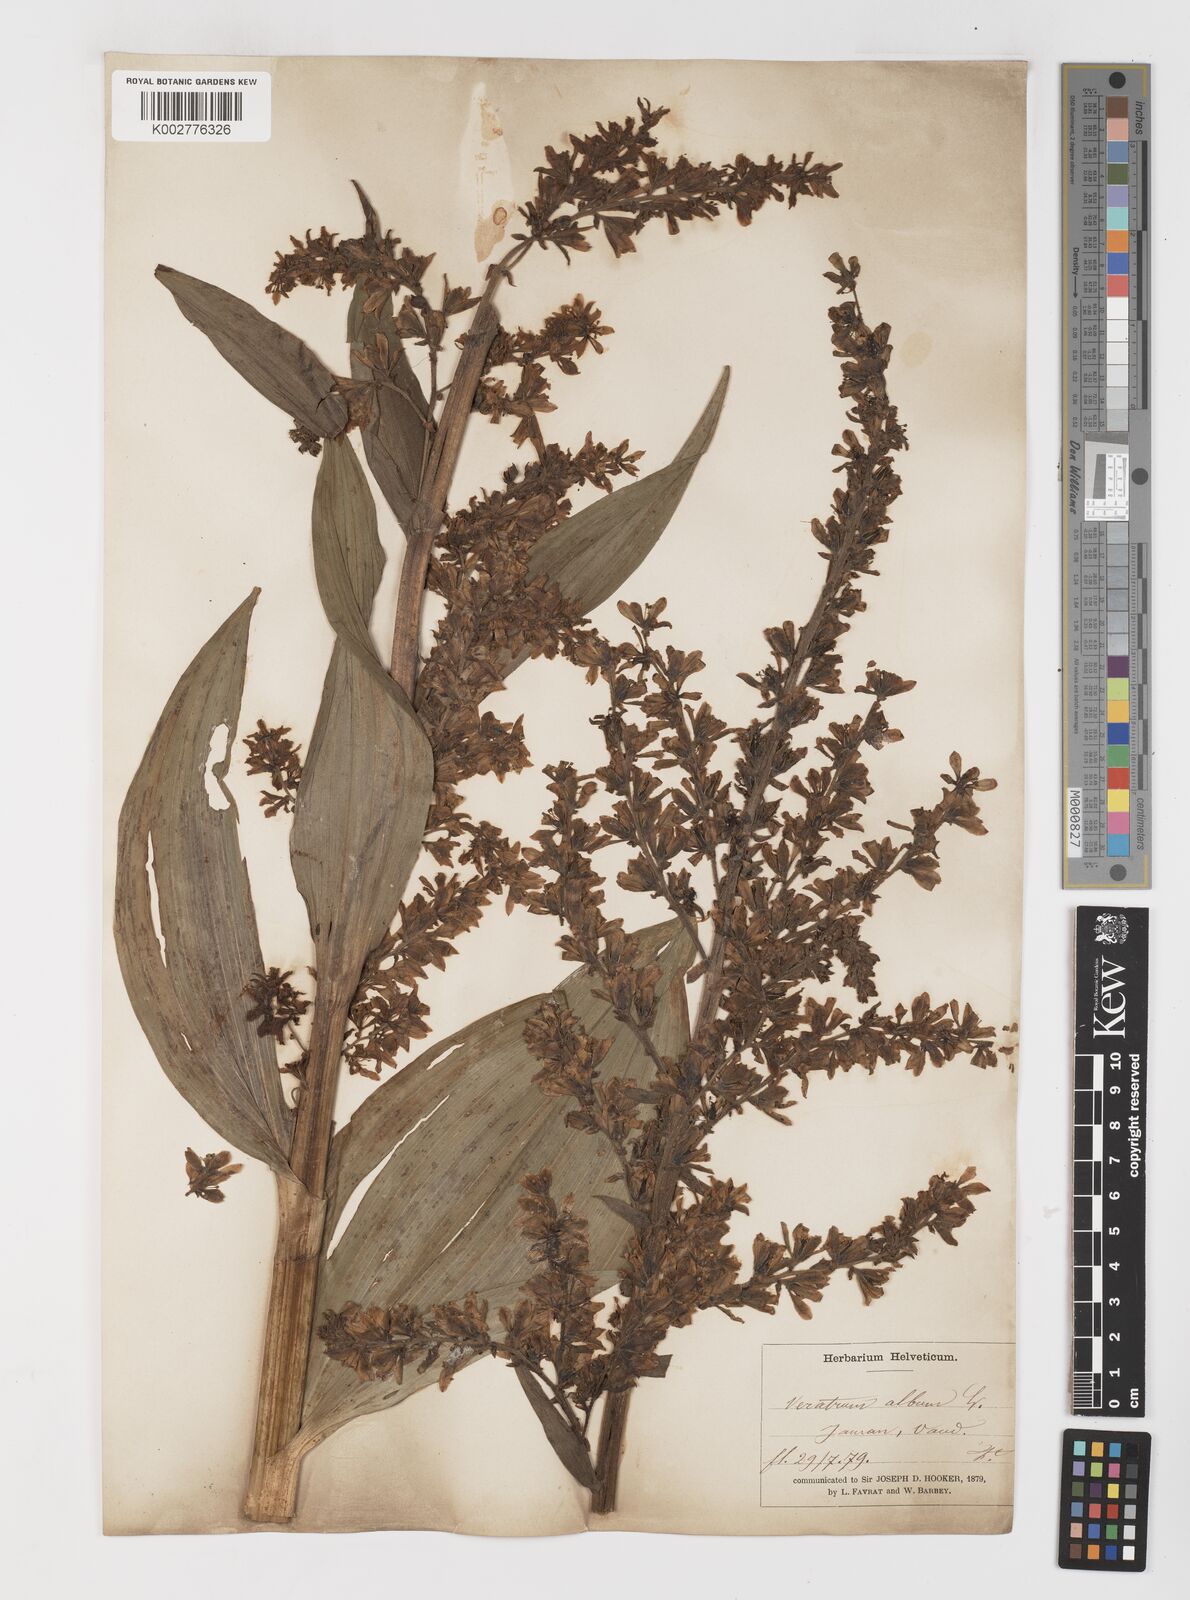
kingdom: Plantae
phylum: Tracheophyta
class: Liliopsida
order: Liliales
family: Melanthiaceae
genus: Veratrum
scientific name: Veratrum album
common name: White veratrum
